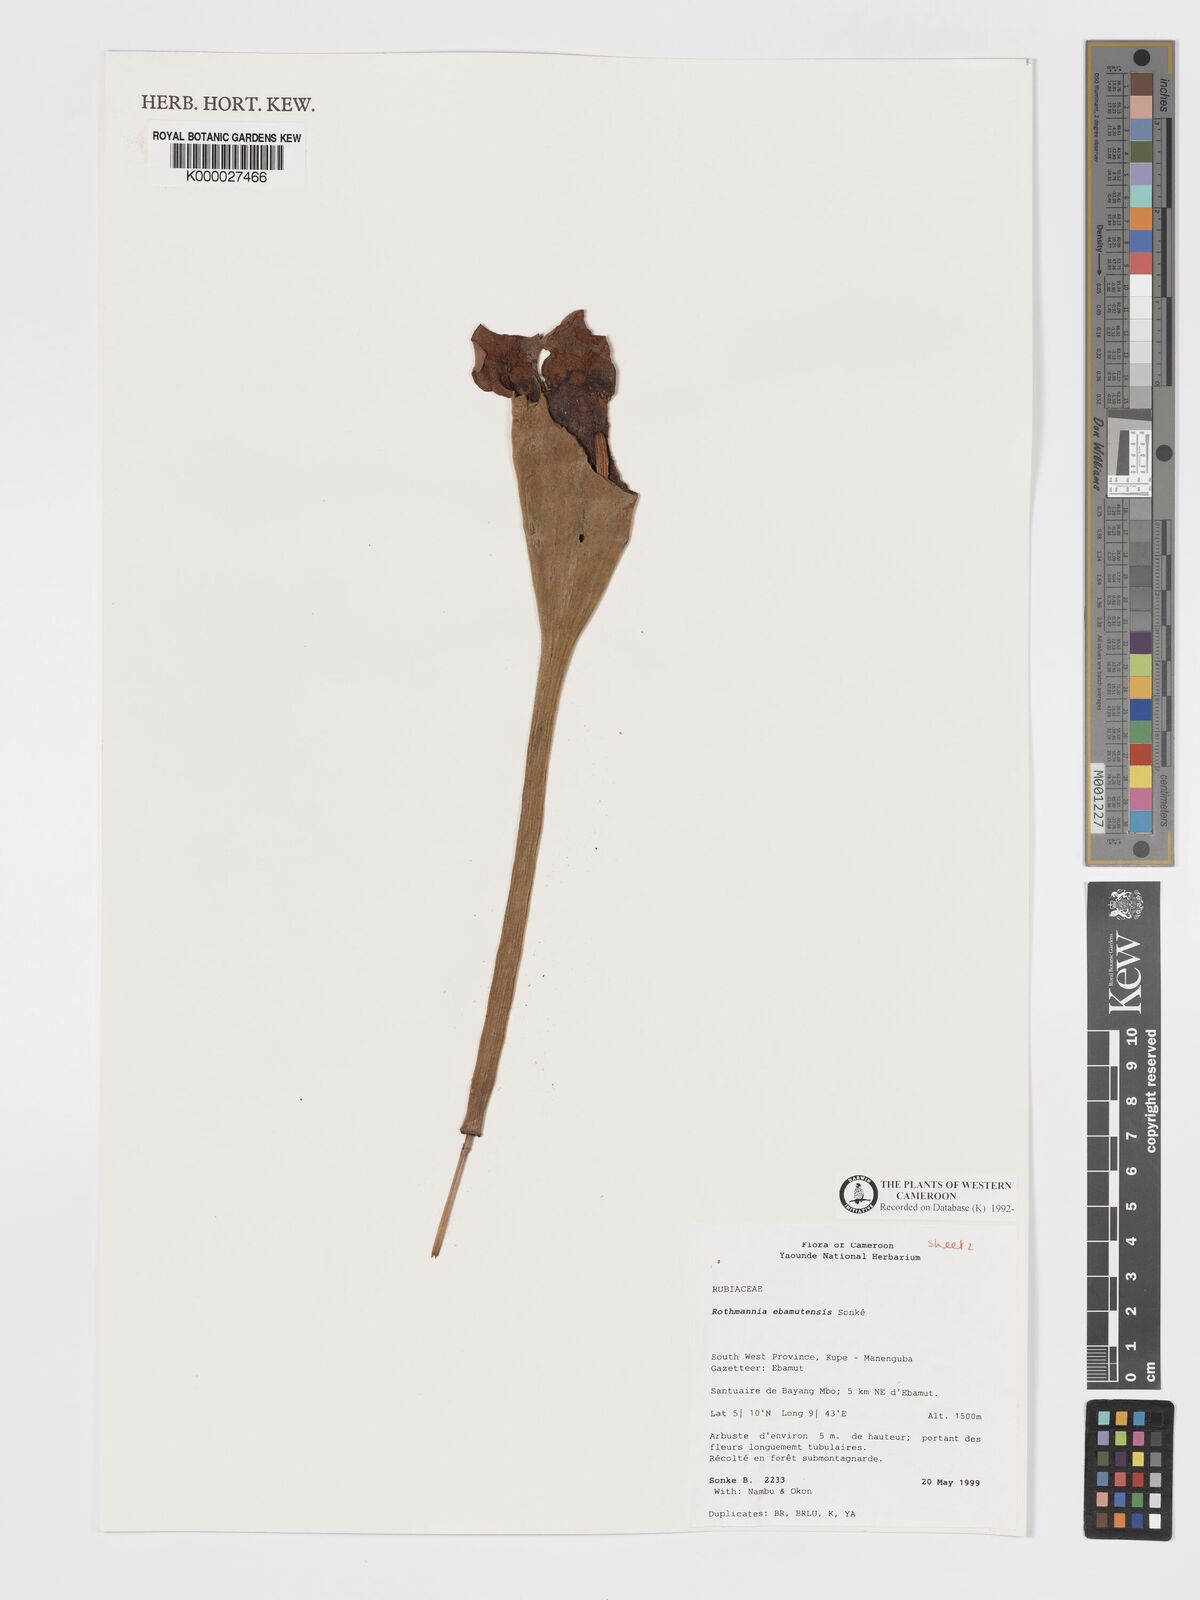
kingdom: Plantae
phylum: Tracheophyta
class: Magnoliopsida
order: Gentianales
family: Rubiaceae
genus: Rothmannia
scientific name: Rothmannia
